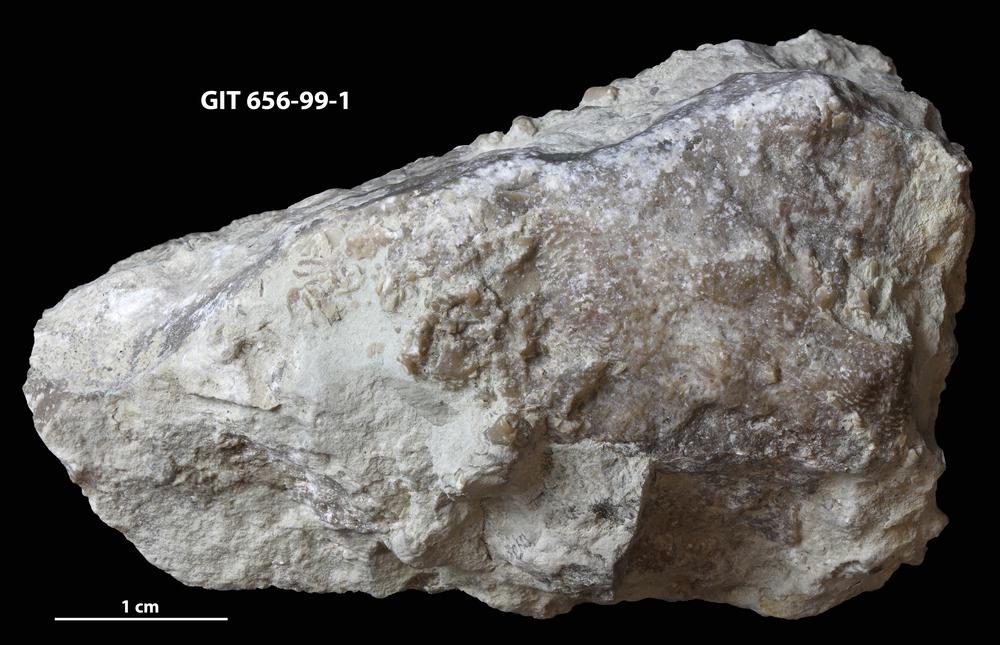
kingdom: Animalia
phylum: Cnidaria
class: Anthozoa
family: Alveolitidae
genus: Kitakamiia
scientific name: Kitakamiia
